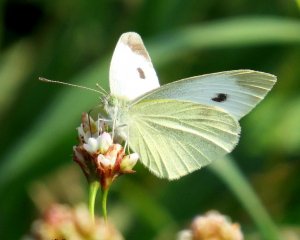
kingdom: Animalia
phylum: Arthropoda
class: Insecta
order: Lepidoptera
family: Pieridae
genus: Pieris
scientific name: Pieris rapae
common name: Cabbage White
